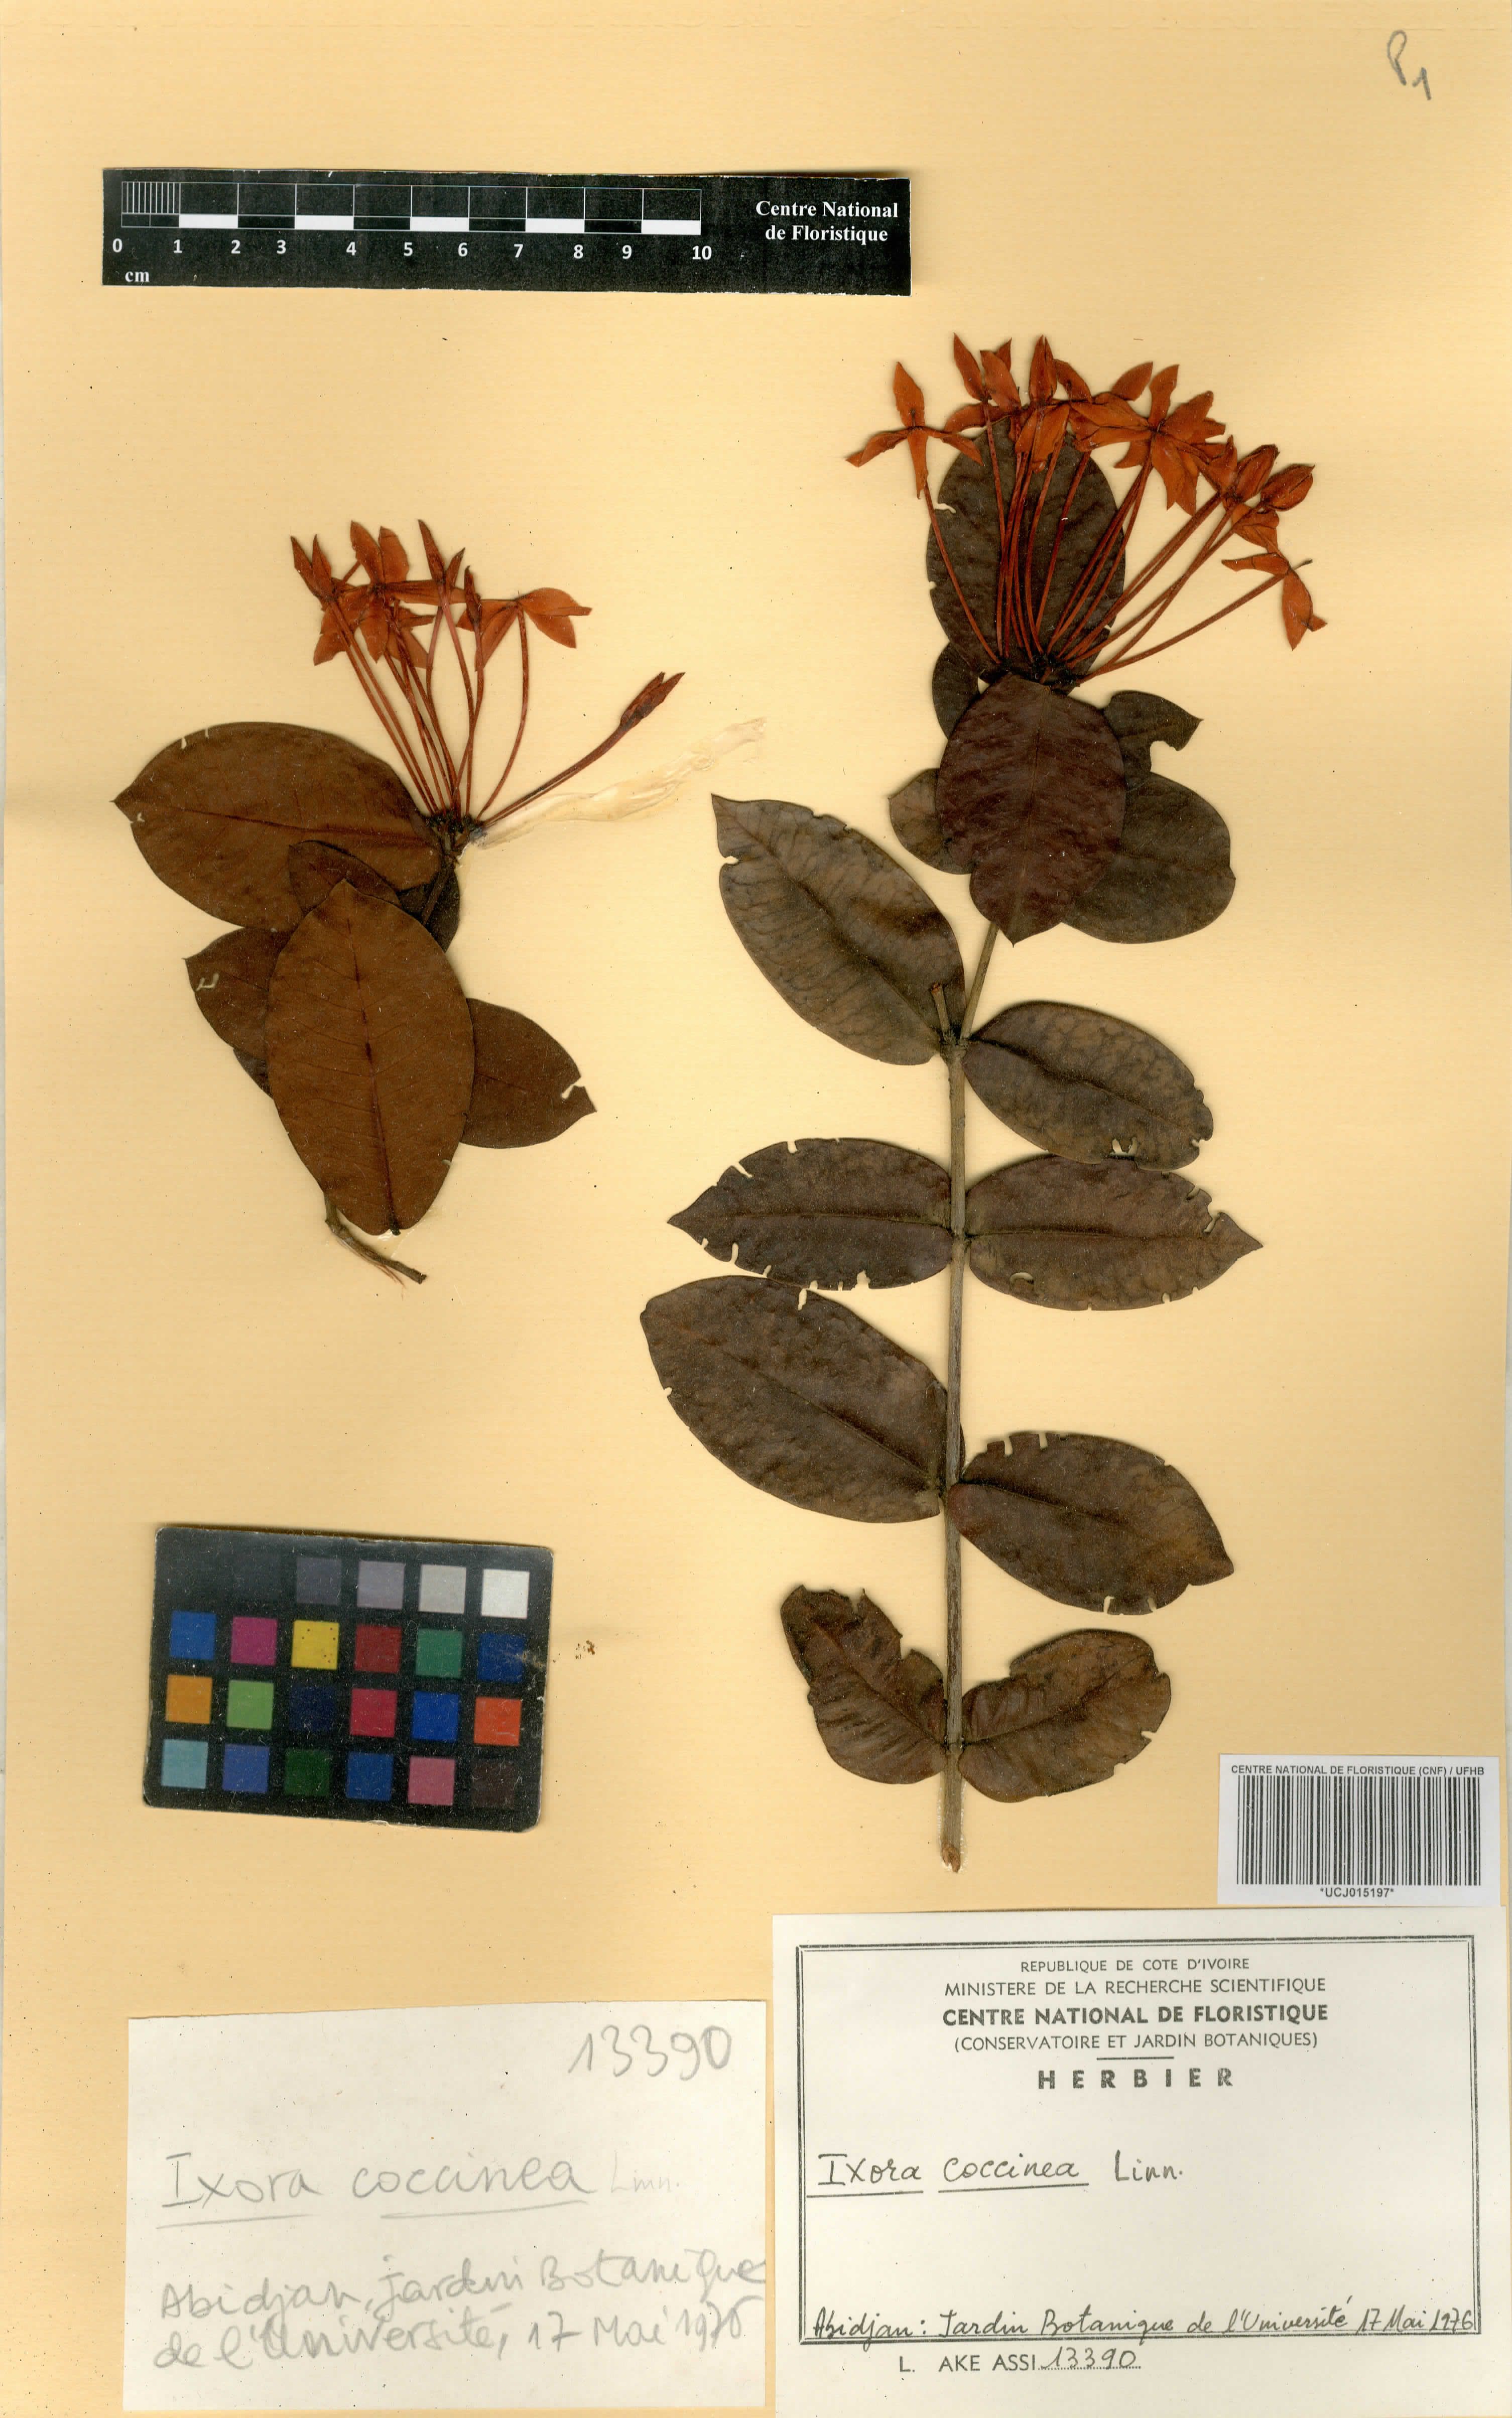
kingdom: Plantae
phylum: Tracheophyta
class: Magnoliopsida
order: Gentianales
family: Rubiaceae
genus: Ixora
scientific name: Ixora coccinea
